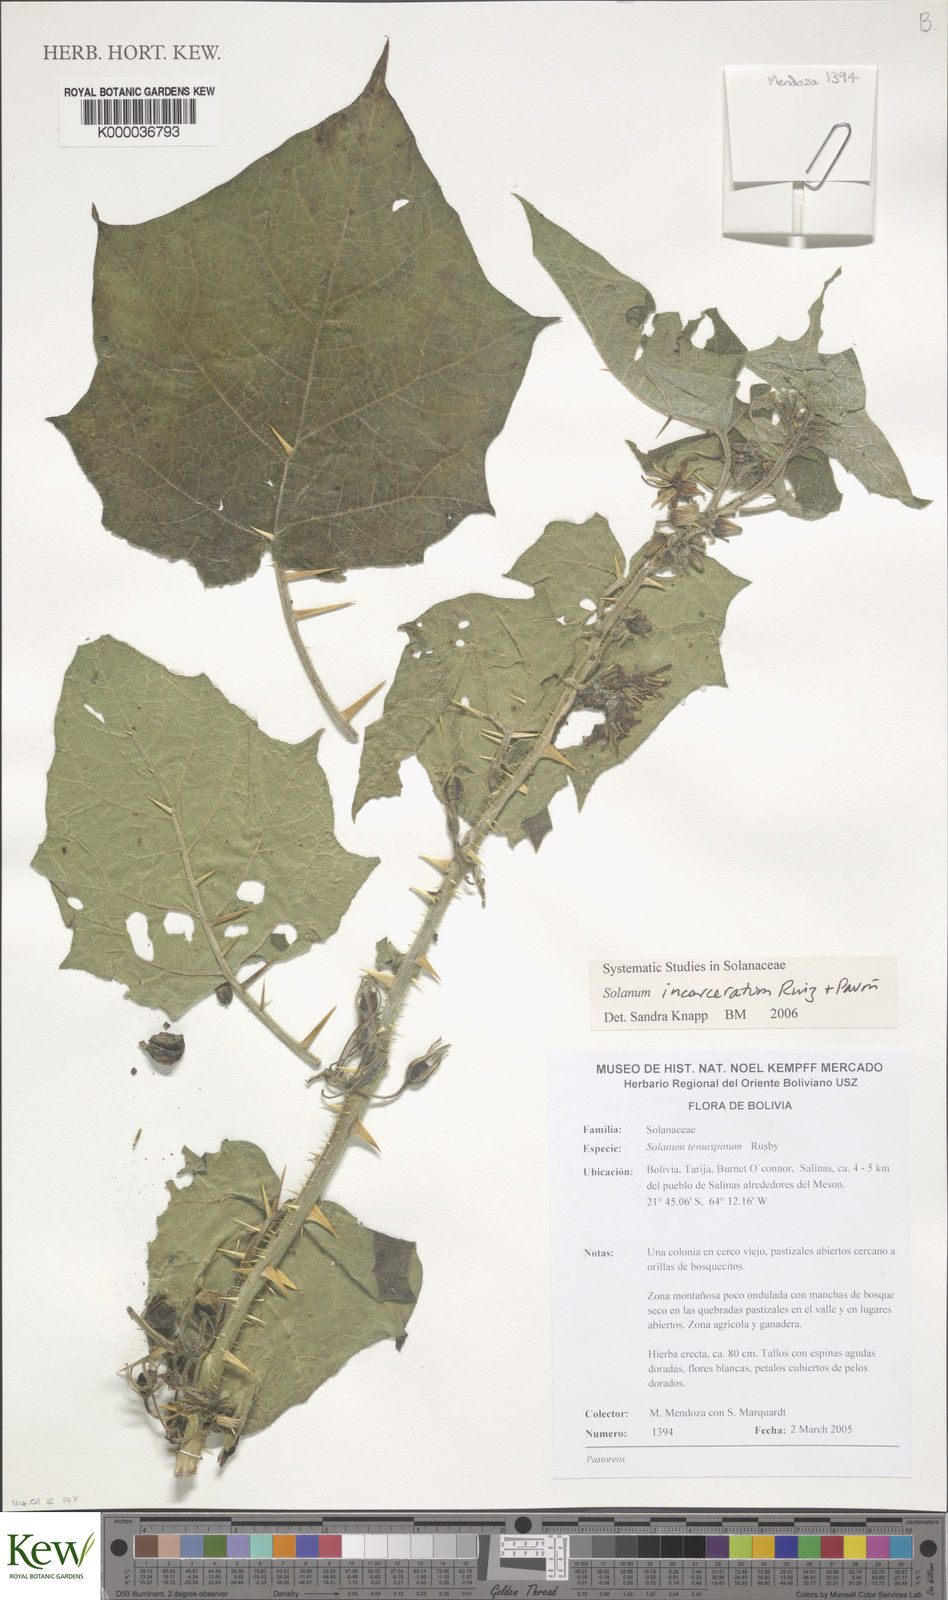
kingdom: Plantae
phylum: Tracheophyta
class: Magnoliopsida
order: Solanales
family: Solanaceae
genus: Solanum
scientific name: Solanum incarceratum
